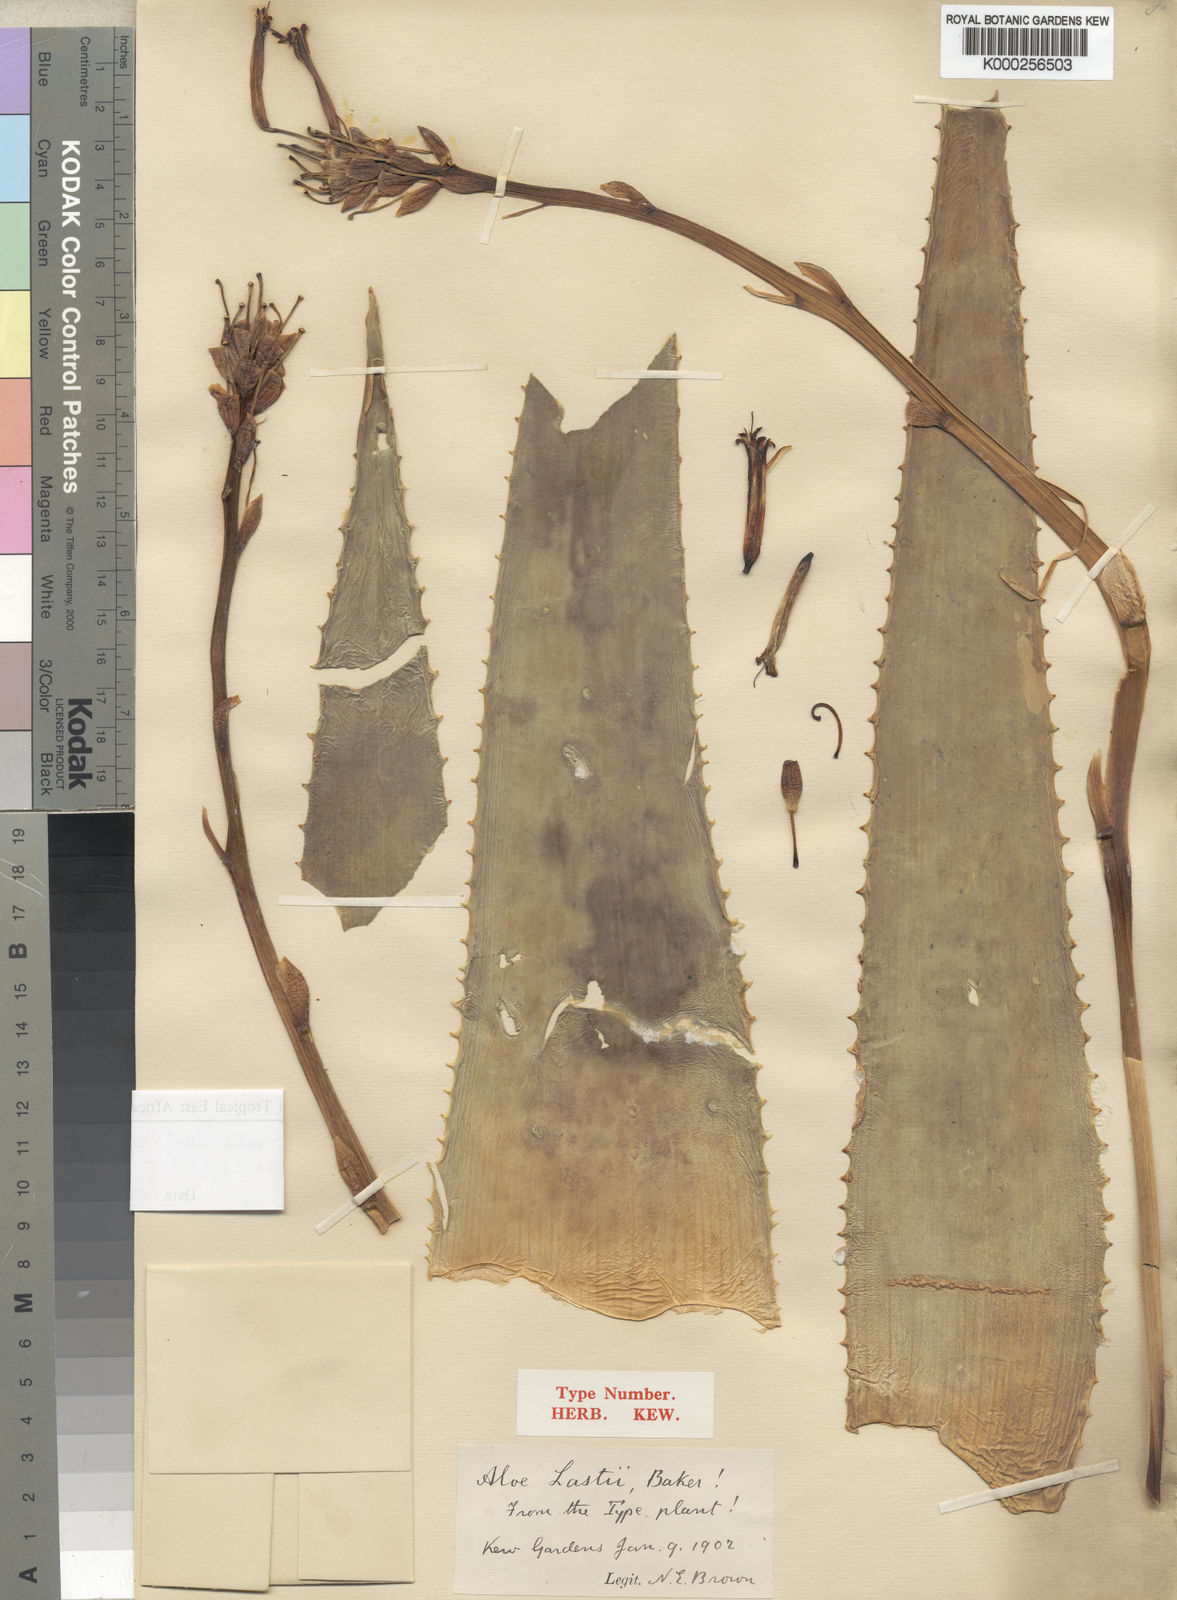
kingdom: Plantae
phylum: Tracheophyta
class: Liliopsida
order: Asparagales
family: Asphodelaceae
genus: Aloe
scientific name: Aloe brachystachys
